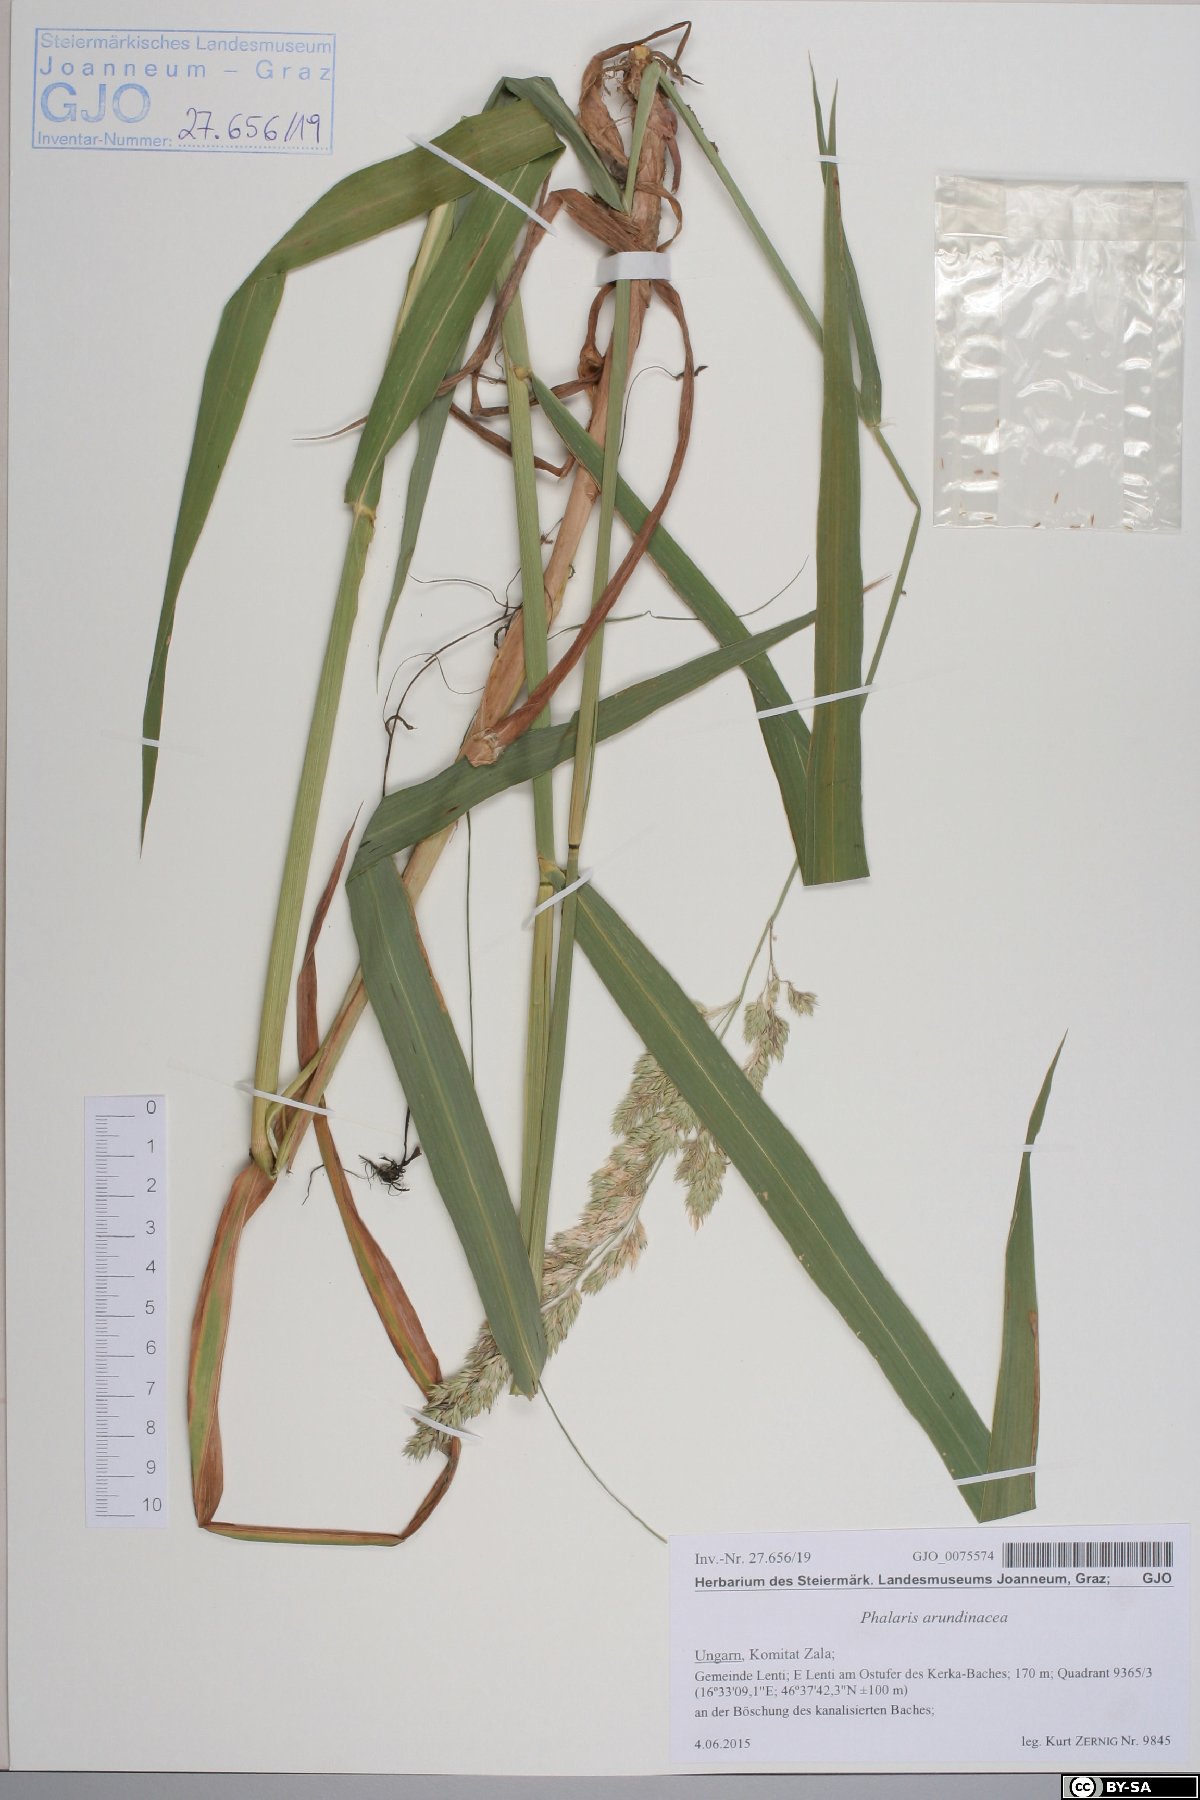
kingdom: Plantae
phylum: Tracheophyta
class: Liliopsida
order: Poales
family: Poaceae
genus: Phalaris
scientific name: Phalaris arundinacea
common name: Reed canary-grass
